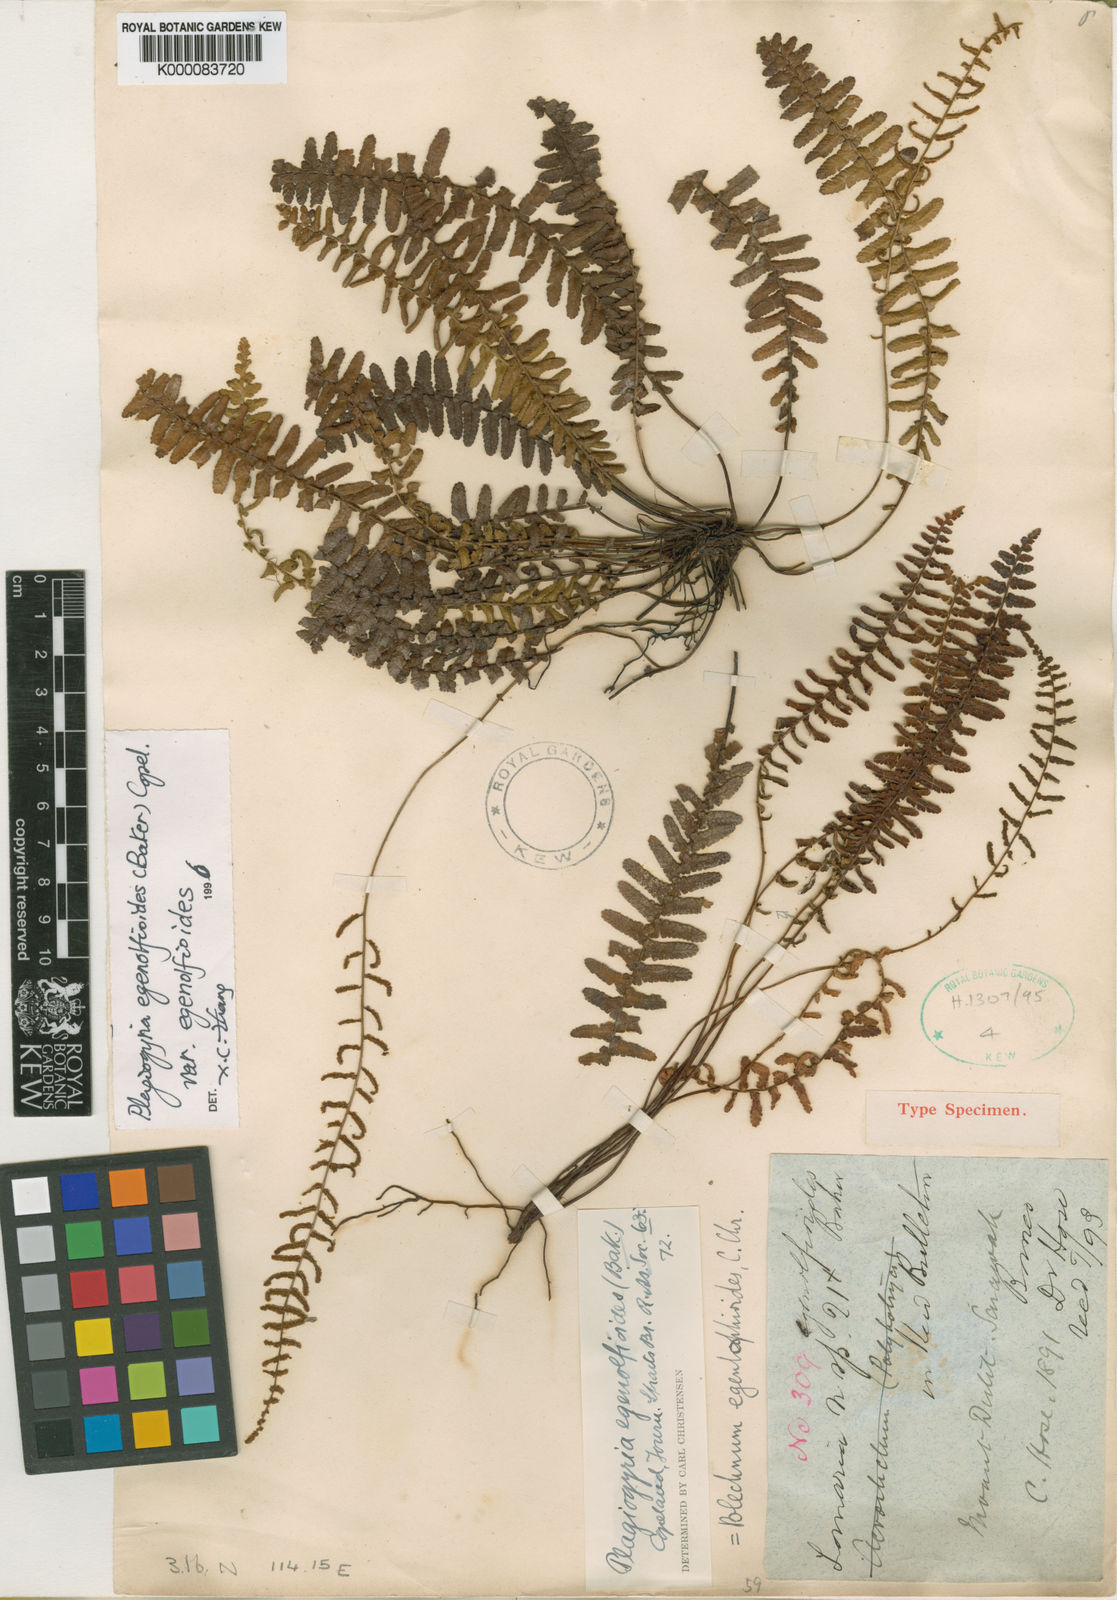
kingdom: Plantae
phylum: Tracheophyta
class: Polypodiopsida
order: Cyatheales
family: Plagiogyriaceae
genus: Plagiogyria
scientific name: Plagiogyria egenolfioides
